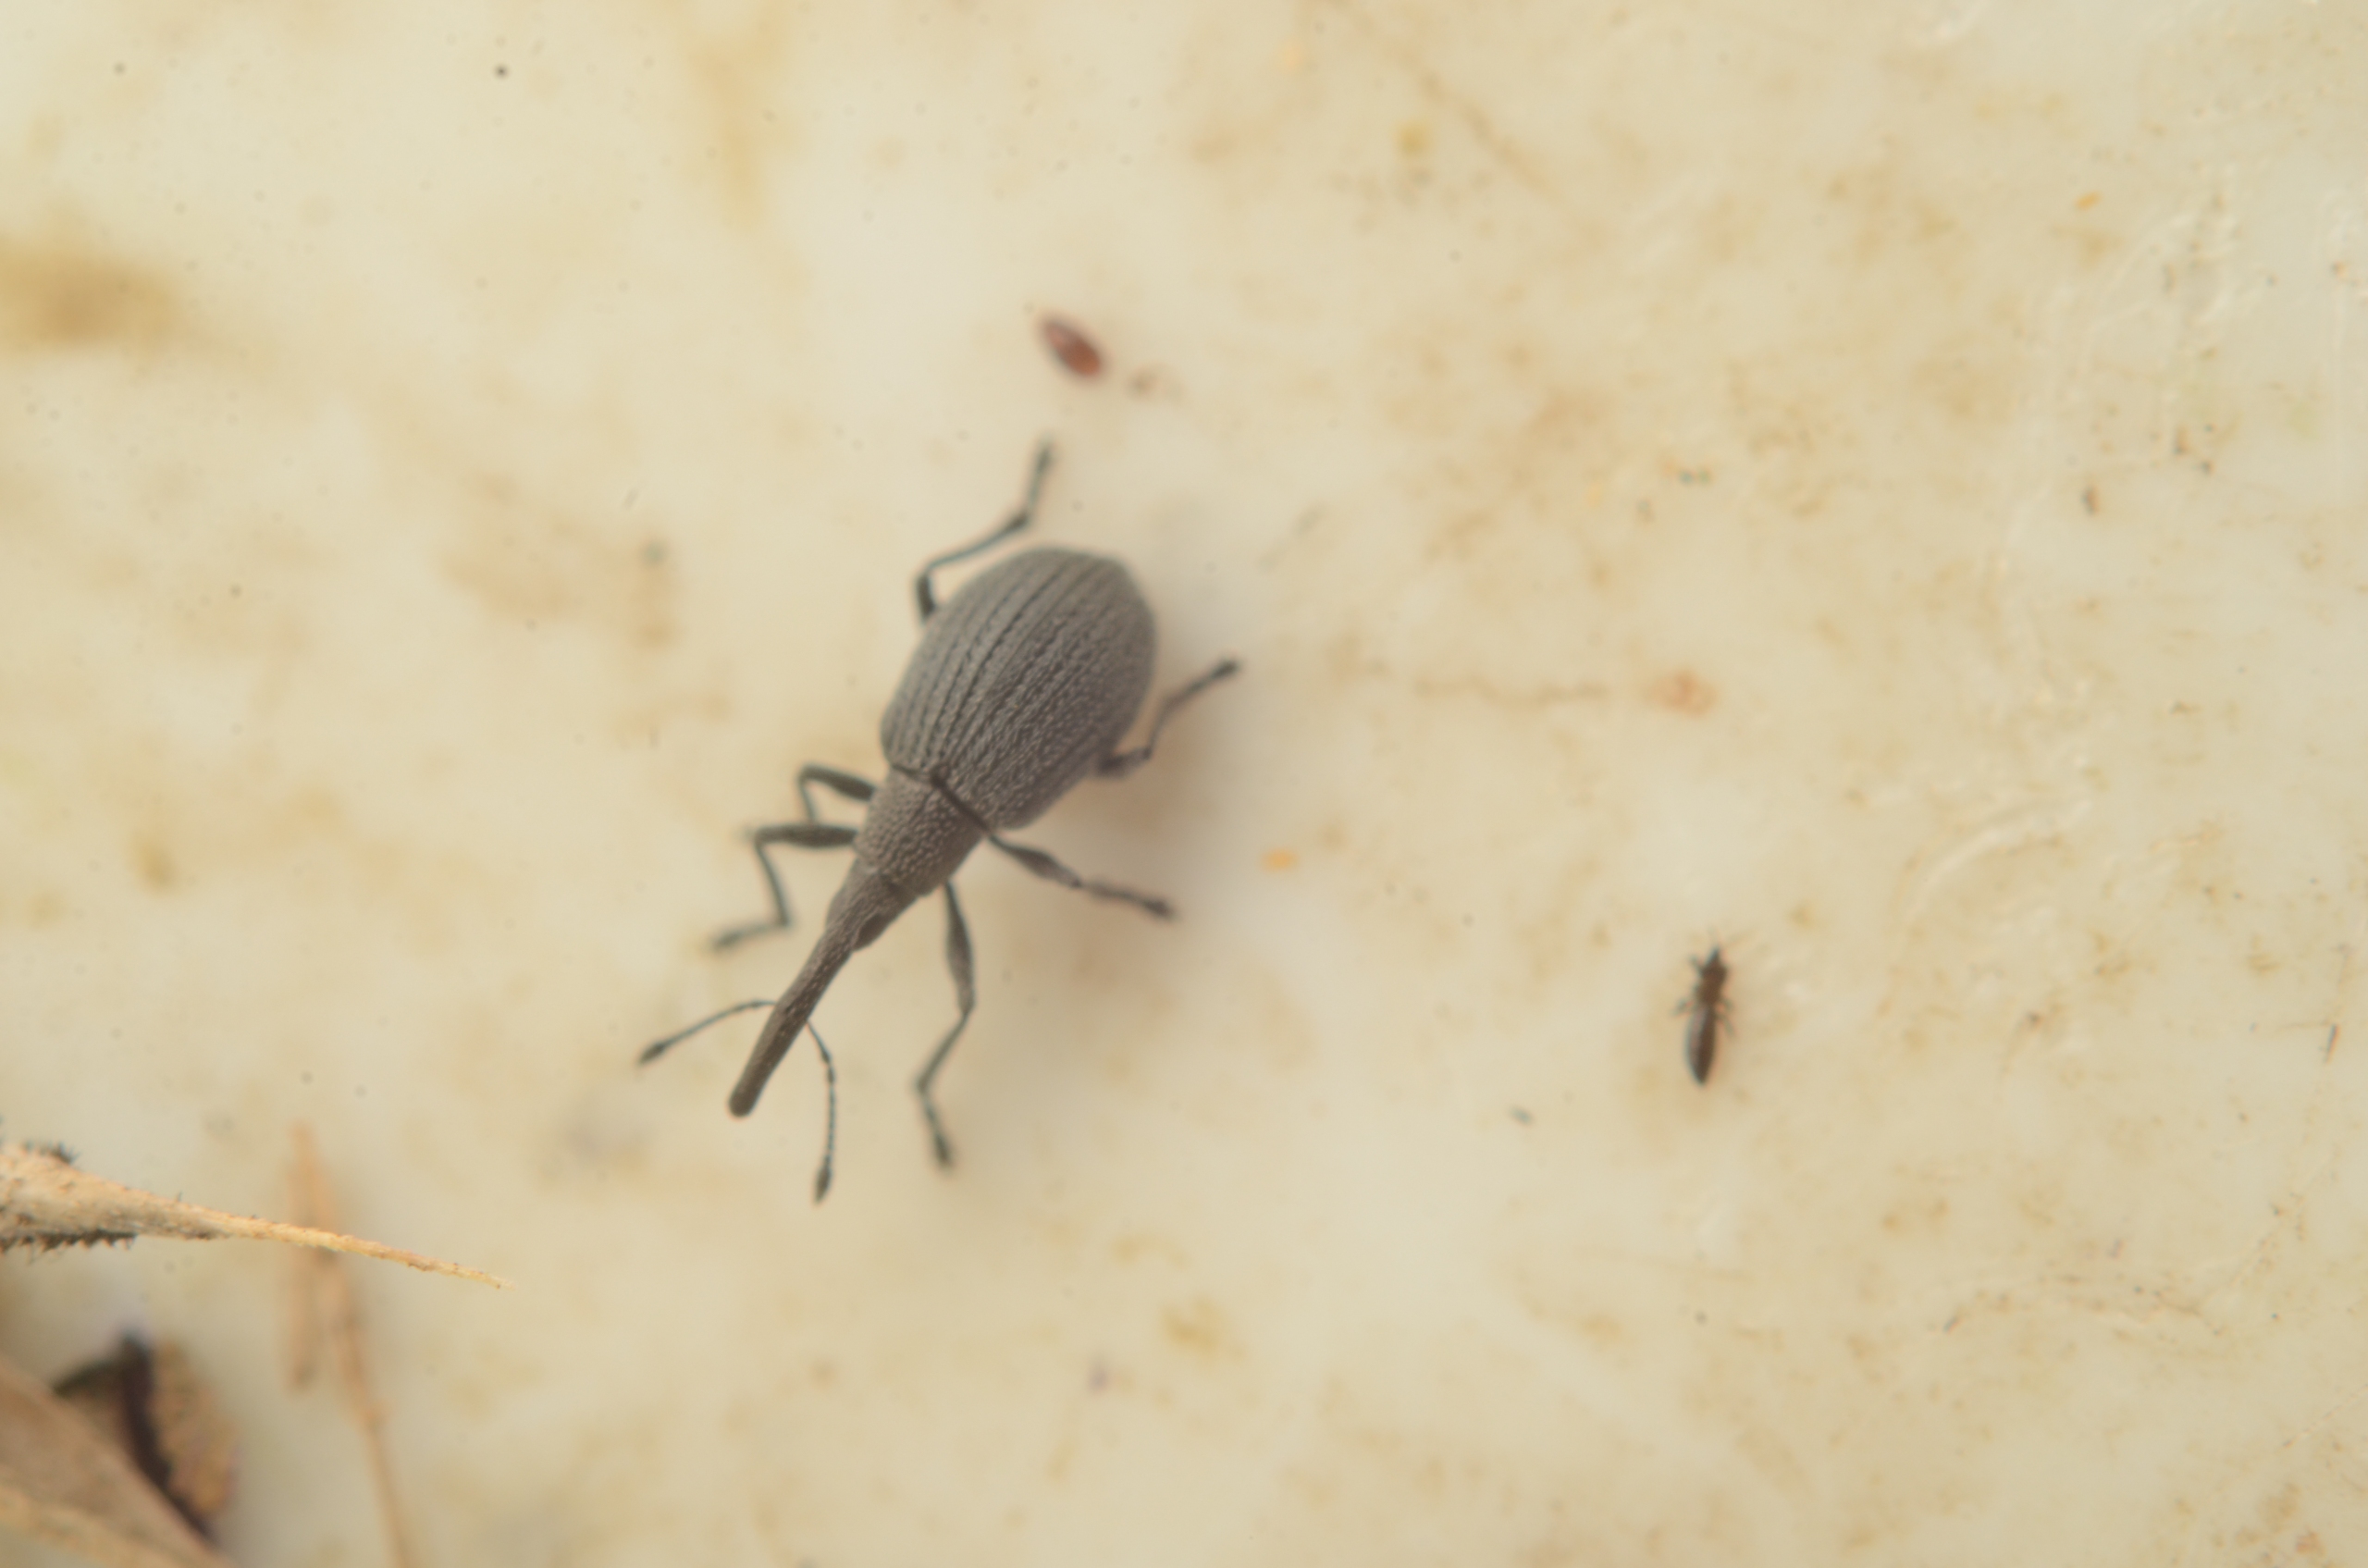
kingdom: Animalia
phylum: Arthropoda
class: Insecta
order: Coleoptera
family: Apionidae
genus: Cyanapion
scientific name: Cyanapion gyllenhalii
